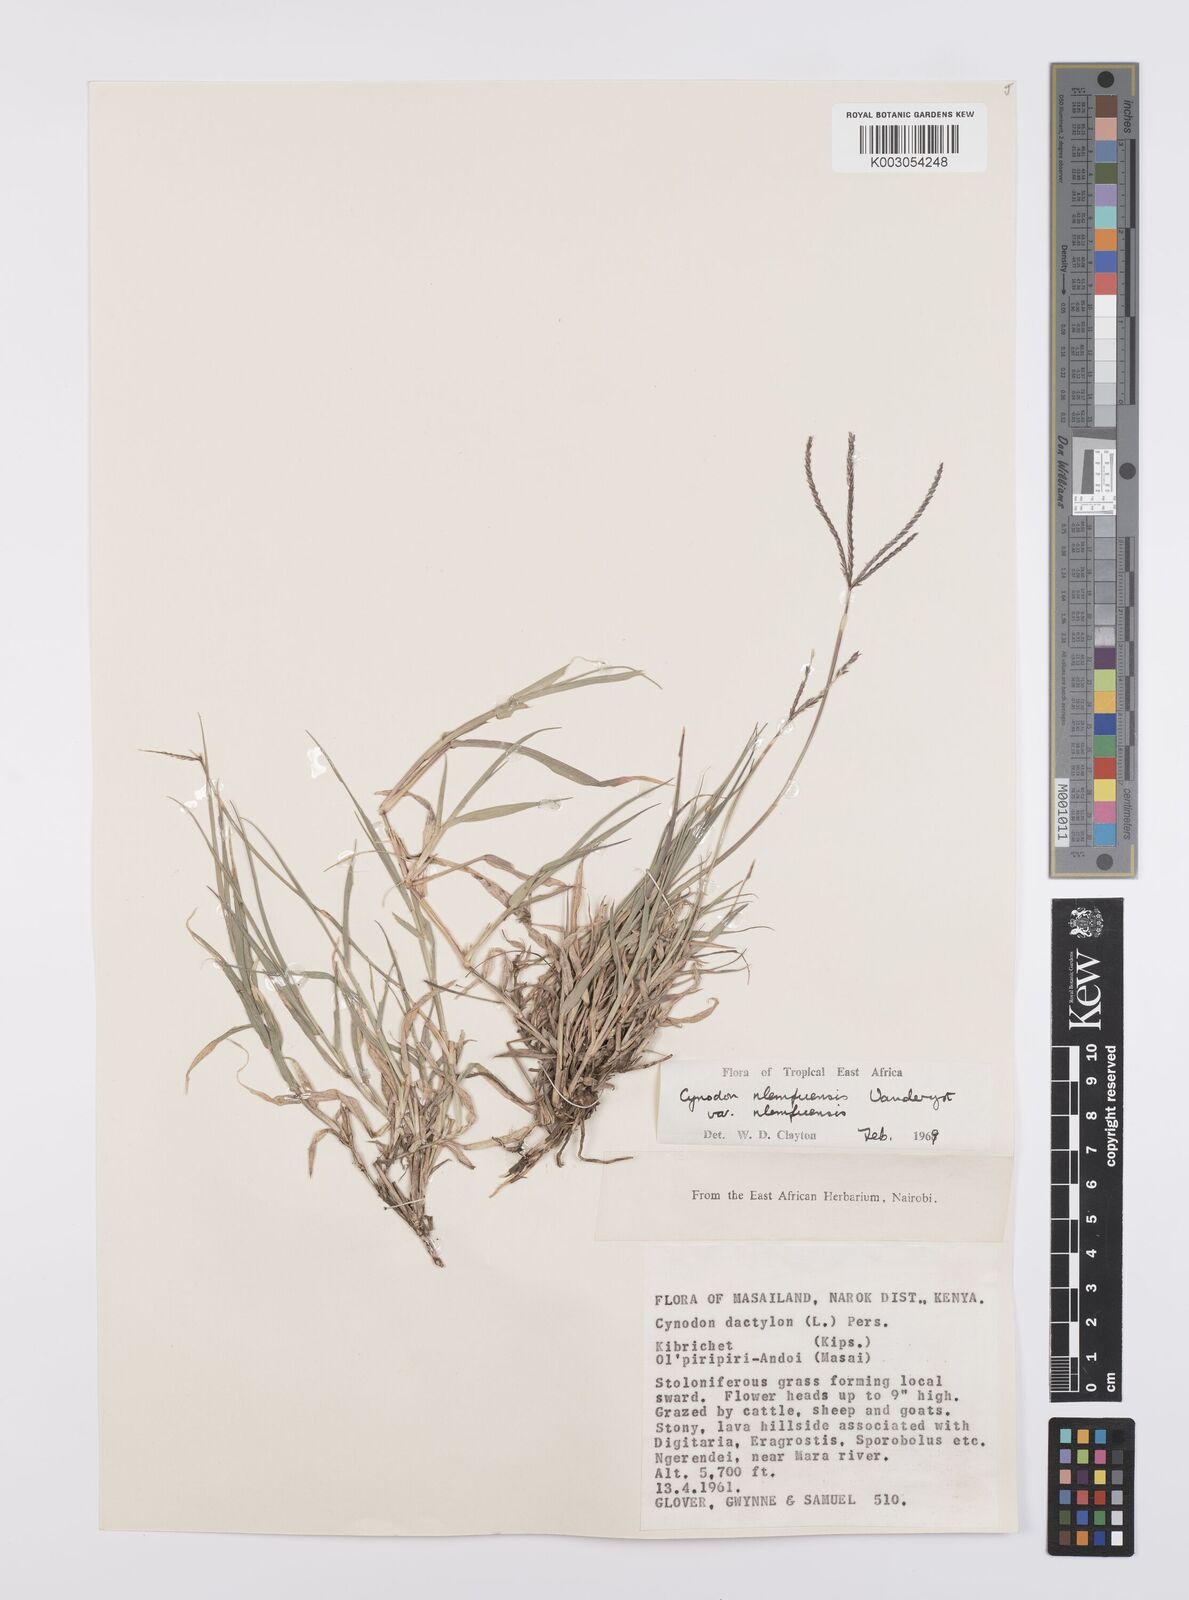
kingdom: Plantae
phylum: Tracheophyta
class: Liliopsida
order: Poales
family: Poaceae
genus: Cynodon
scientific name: Cynodon nlemfuensis
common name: African bermudagrass
